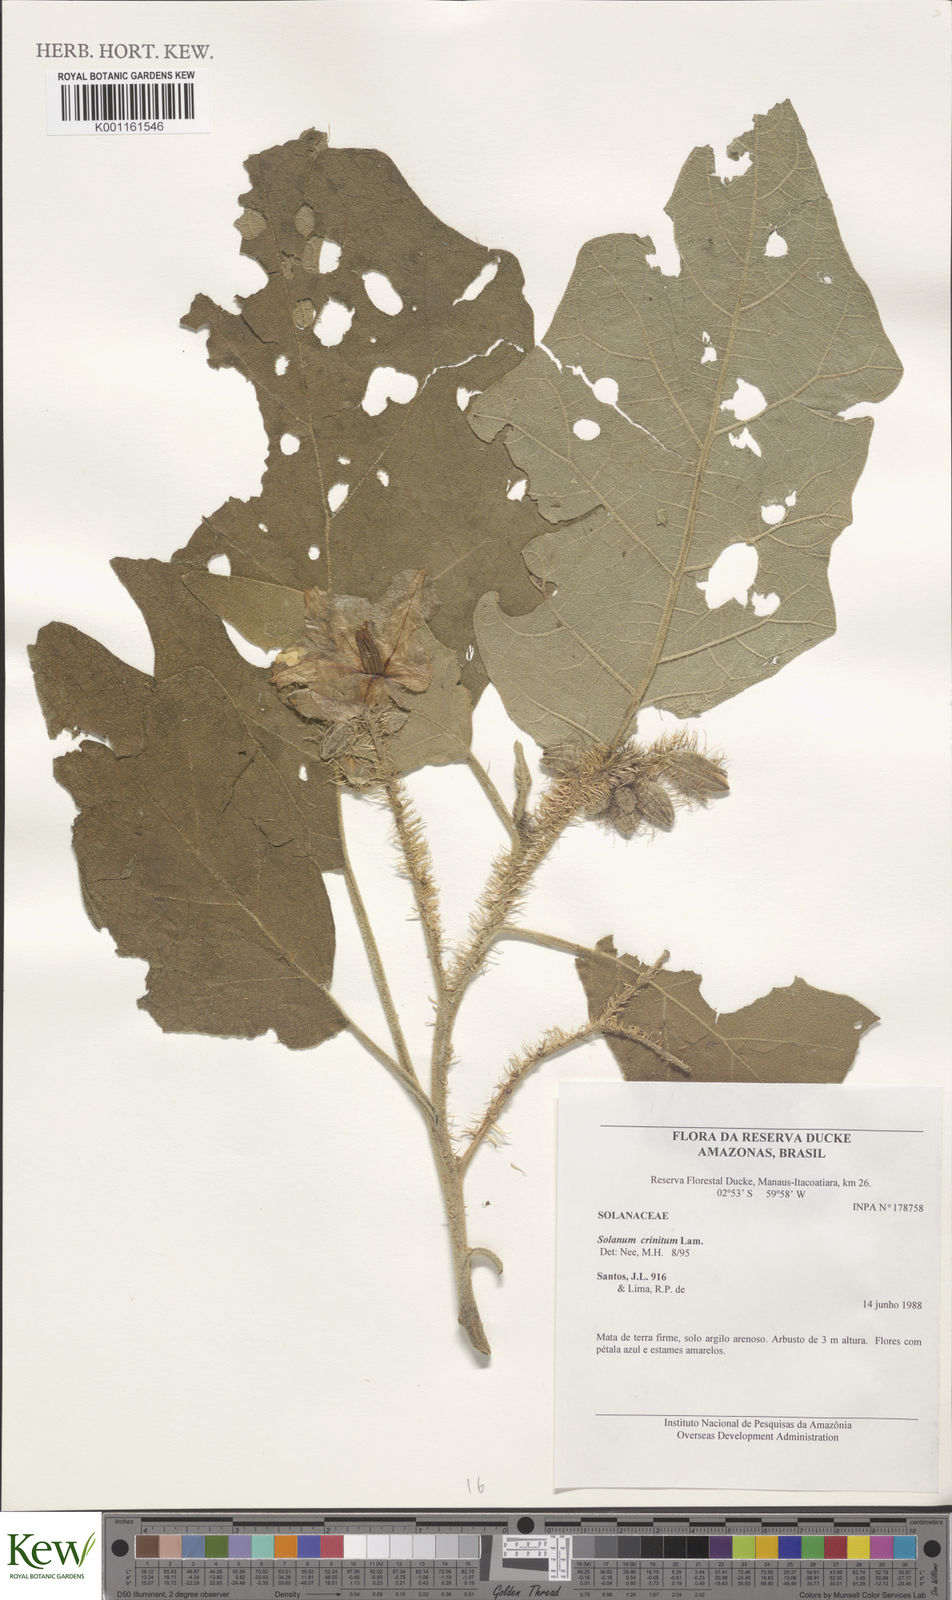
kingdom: Plantae
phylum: Tracheophyta
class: Magnoliopsida
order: Solanales
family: Solanaceae
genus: Solanum
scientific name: Solanum crinitum
